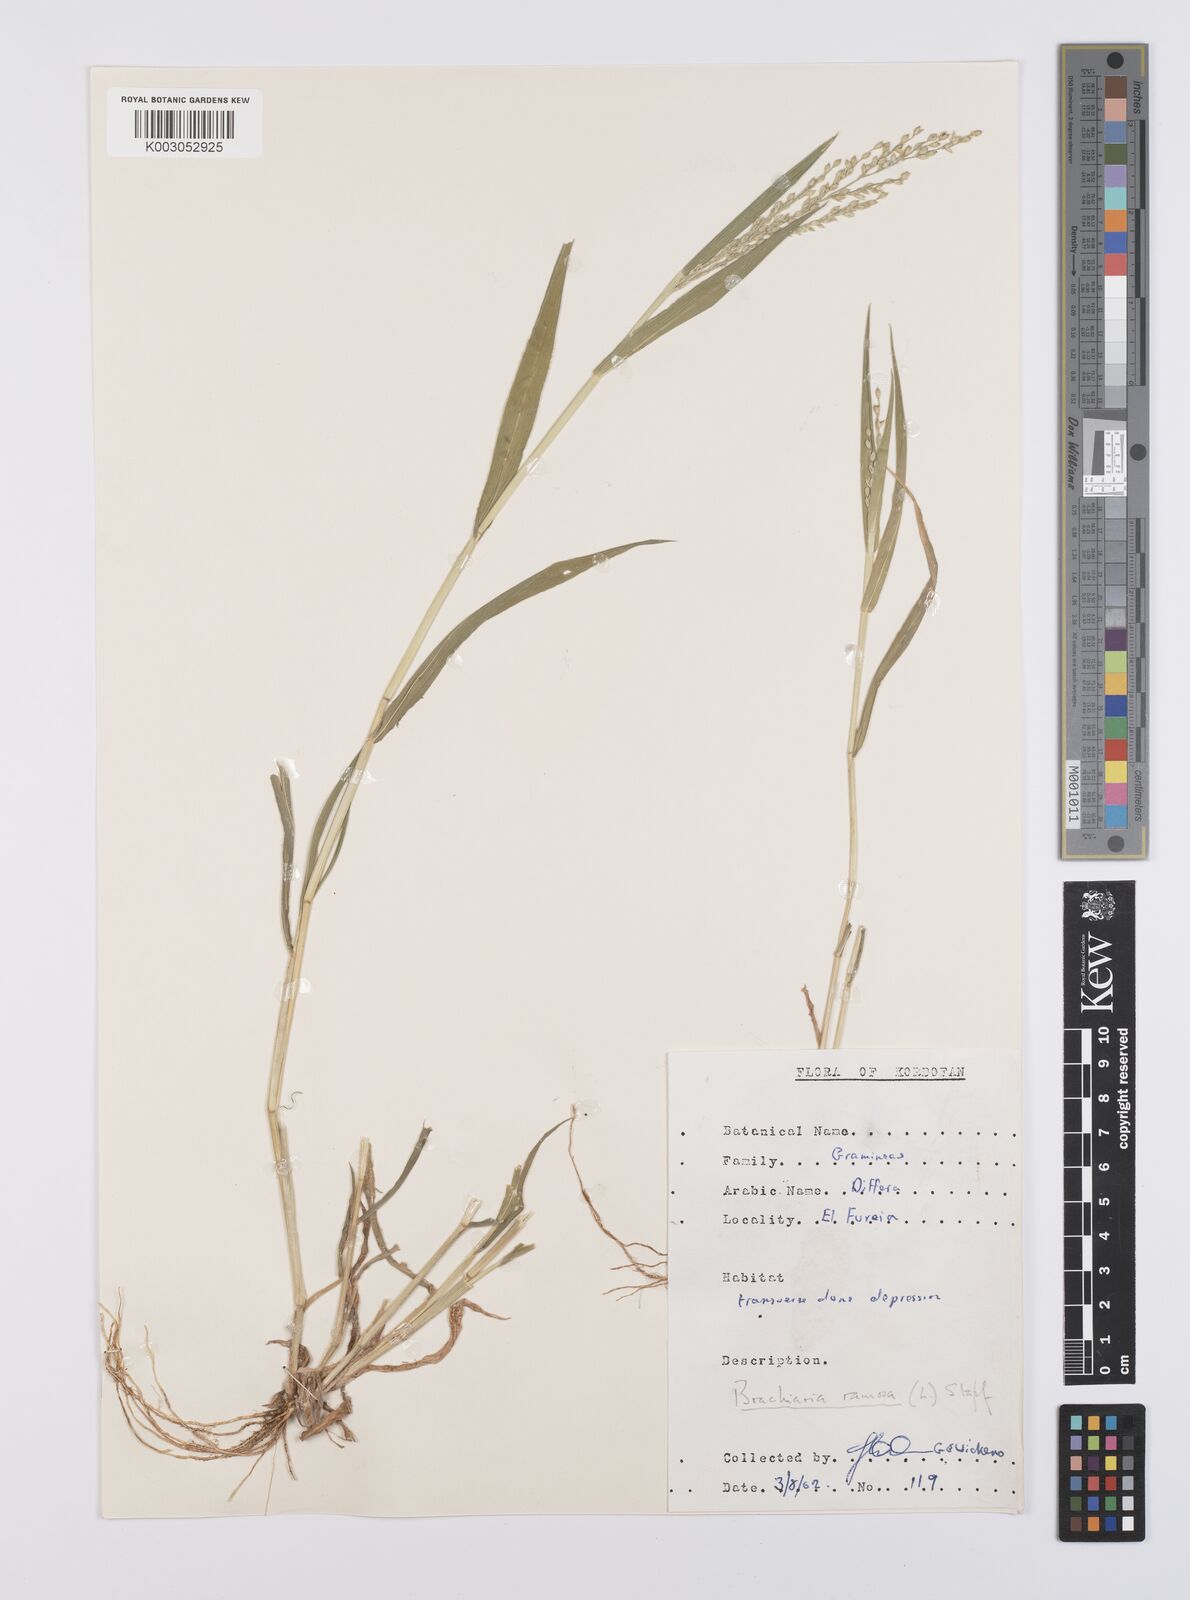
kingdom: Plantae
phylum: Tracheophyta
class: Liliopsida
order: Poales
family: Poaceae
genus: Urochloa
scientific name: Urochloa ramosa
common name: Browntop millet
